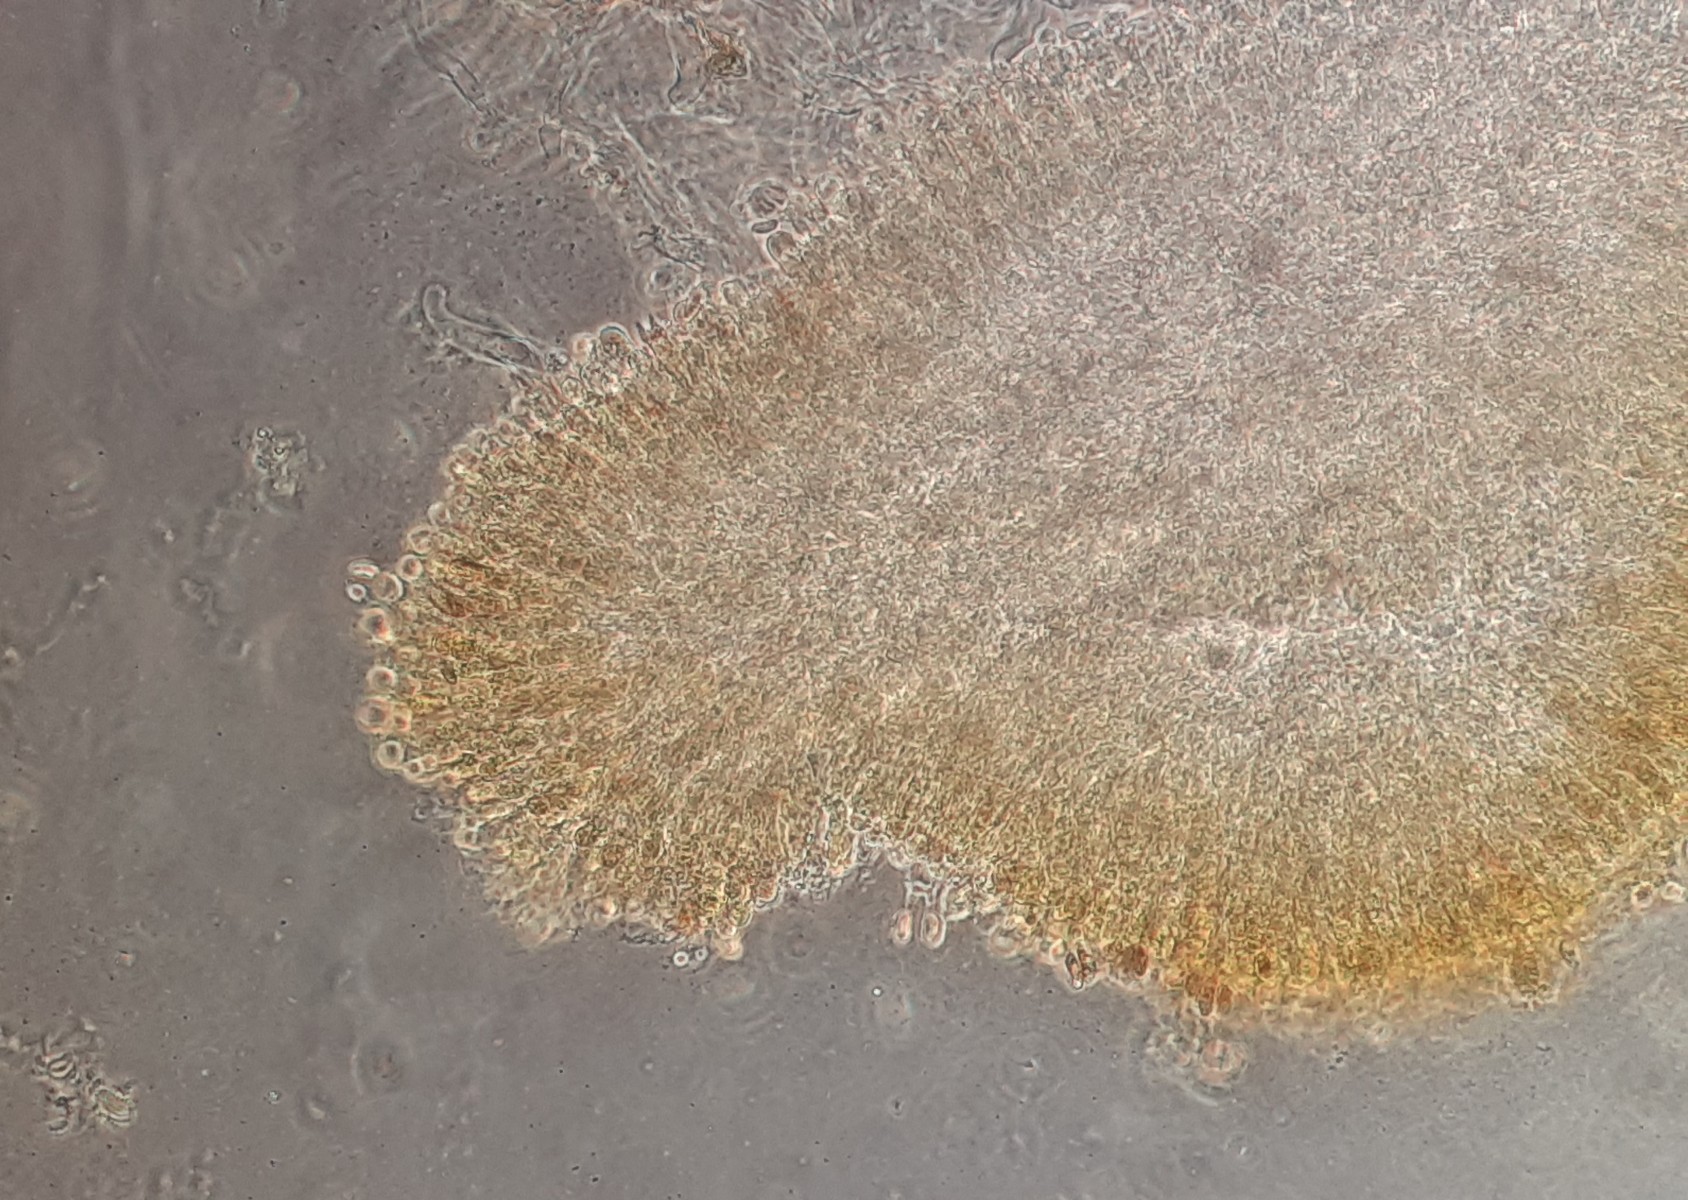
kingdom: Fungi
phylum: Basidiomycota
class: Agaricomycetes
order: Agaricales
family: Typhulaceae
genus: Typhula
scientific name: Typhula
